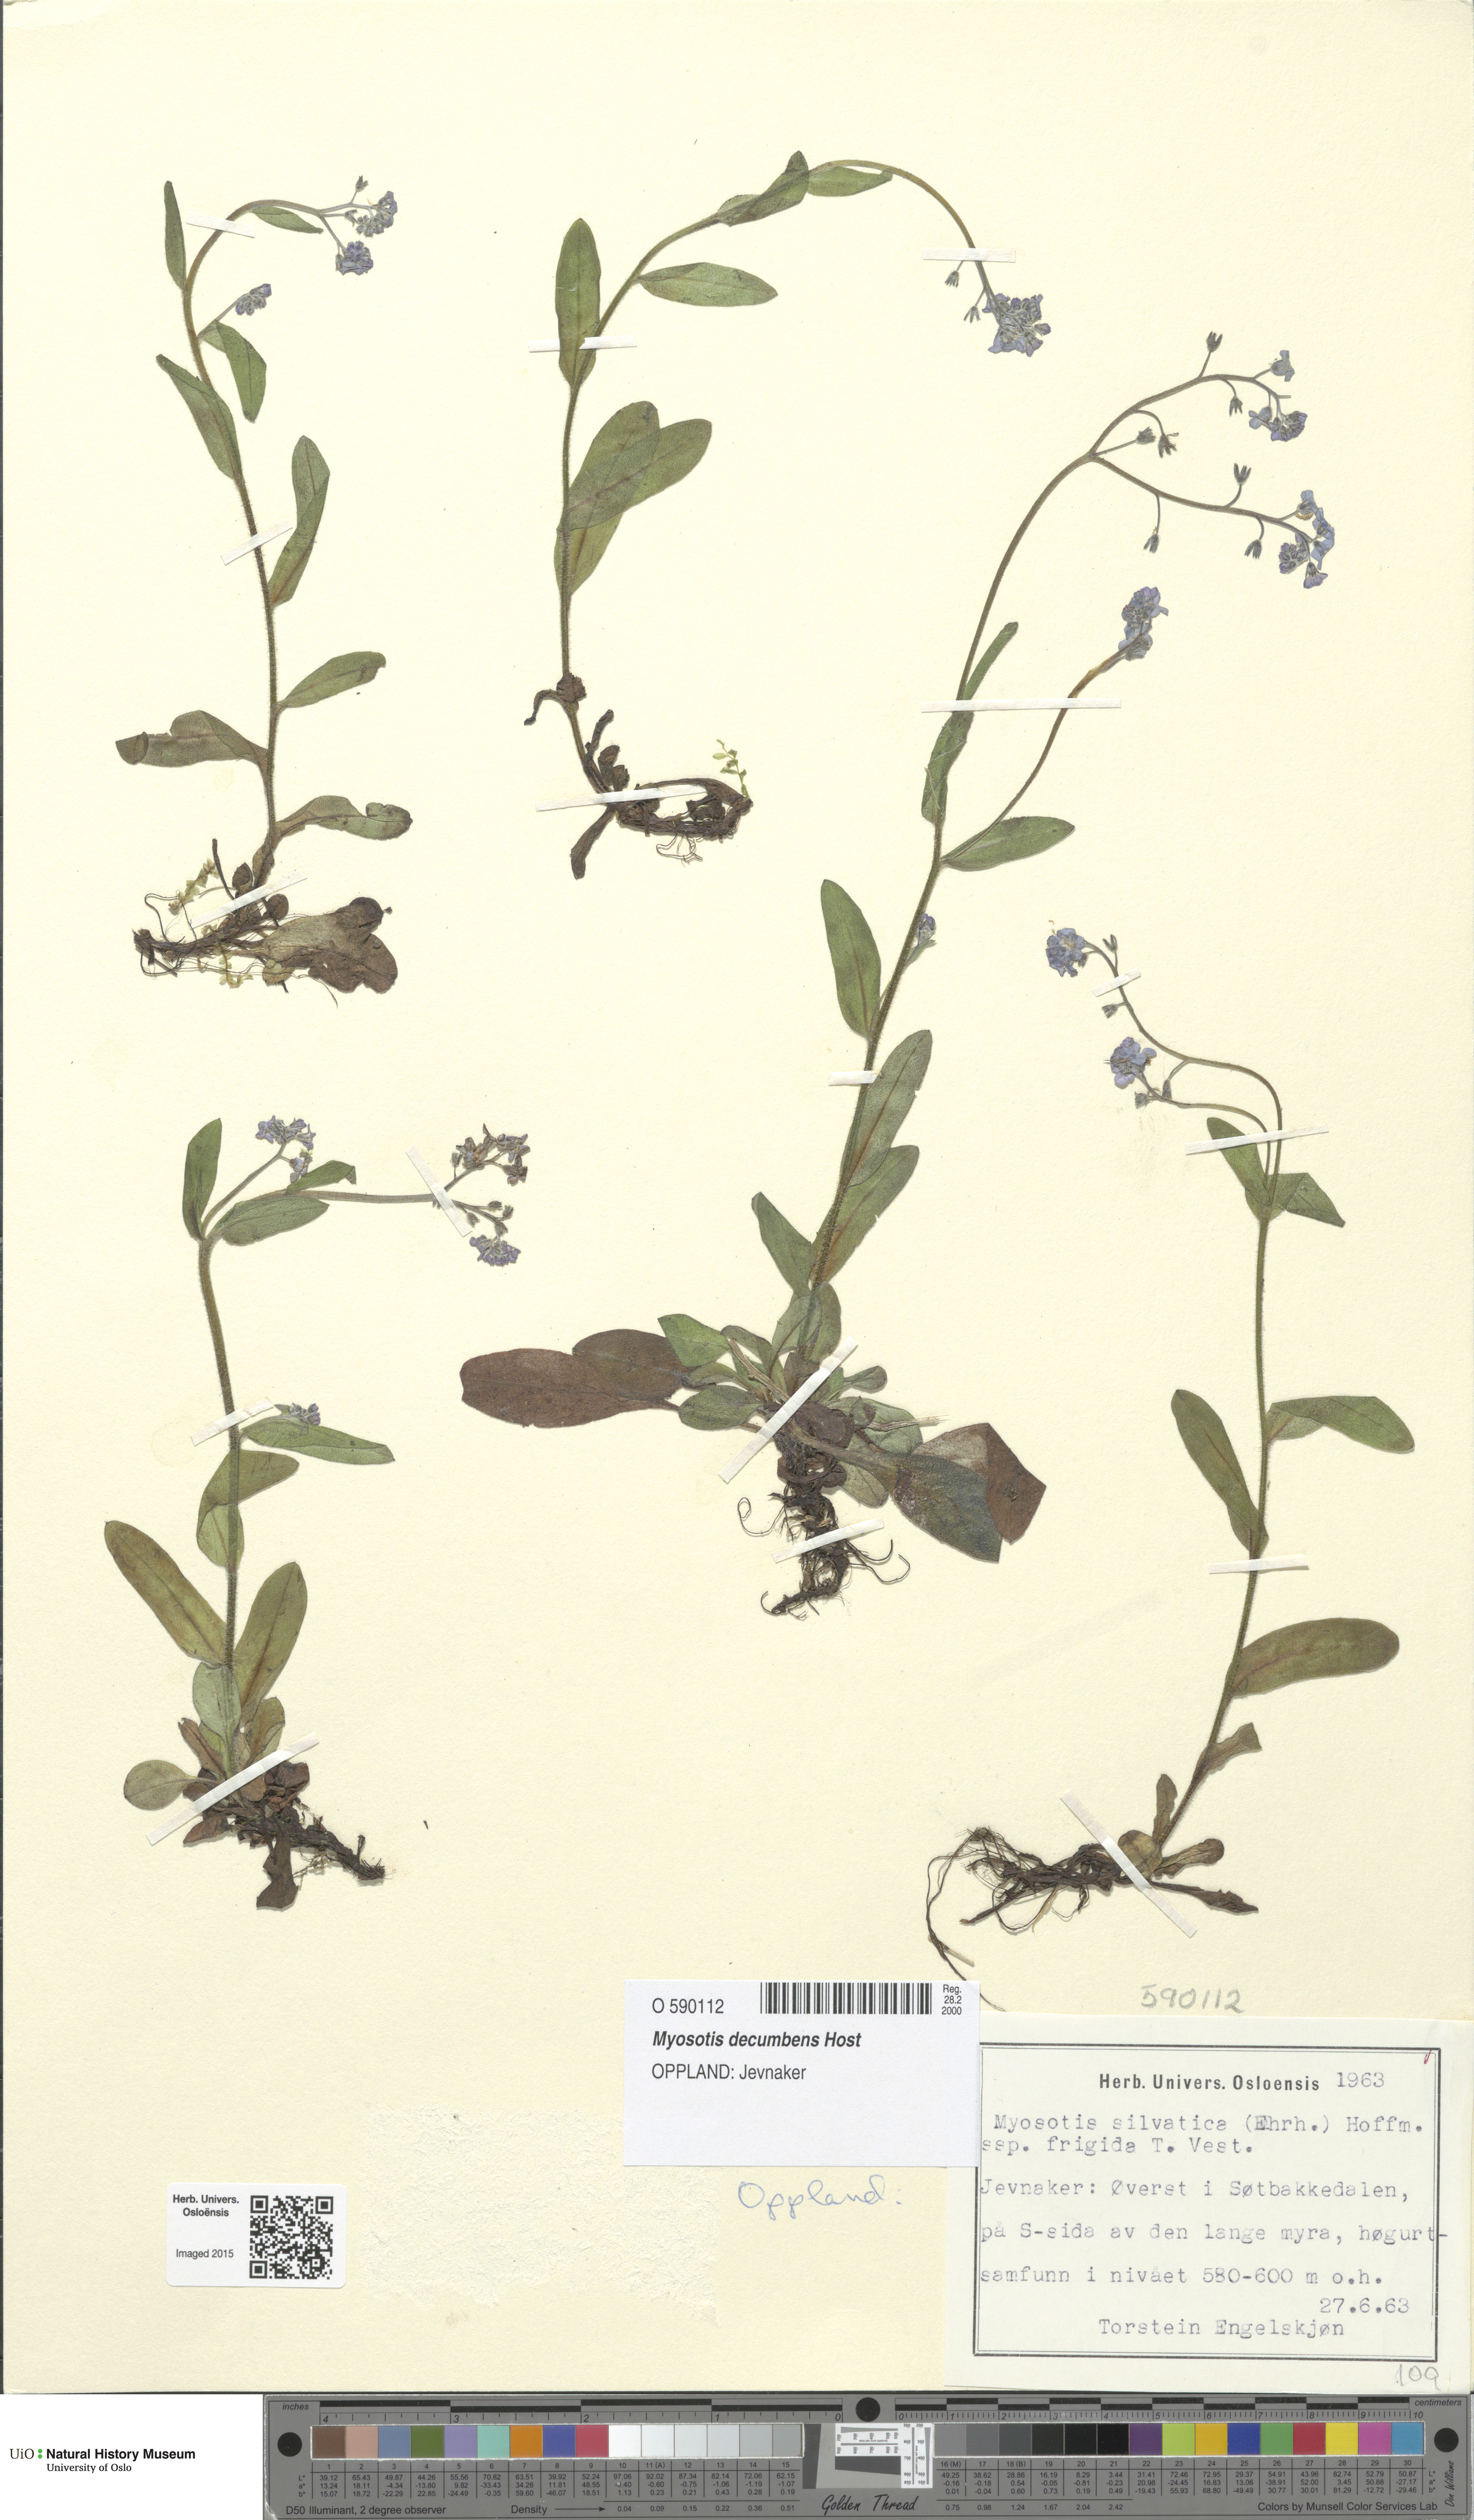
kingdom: Plantae
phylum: Tracheophyta
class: Magnoliopsida
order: Boraginales
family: Boraginaceae
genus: Myosotis
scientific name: Myosotis decumbens
